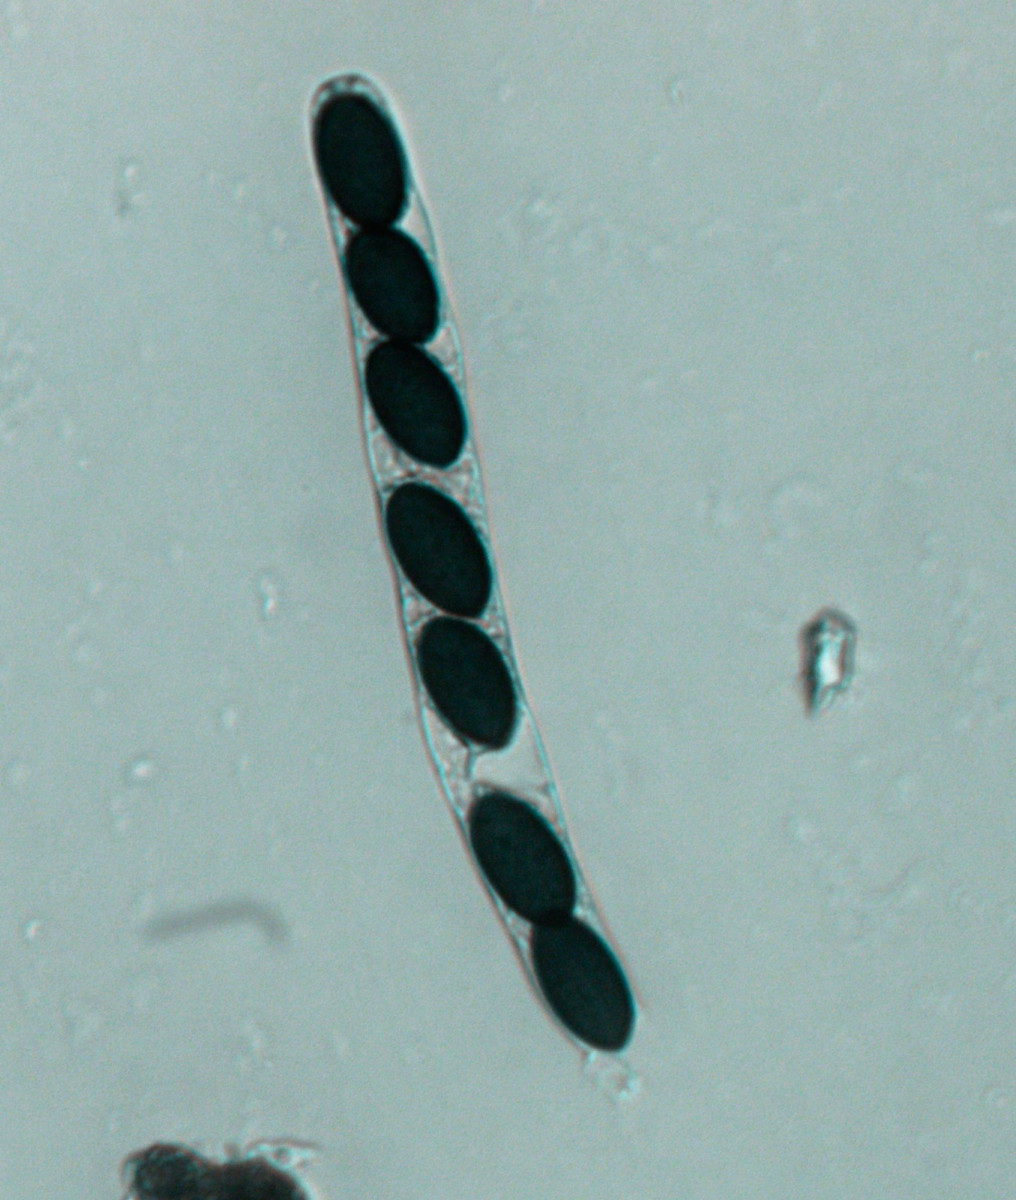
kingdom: Fungi
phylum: Ascomycota
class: Sordariomycetes
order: Sordariales
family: Sordariaceae
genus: Sordaria
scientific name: Sordaria fimicola
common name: gødnings-kernesvamp
